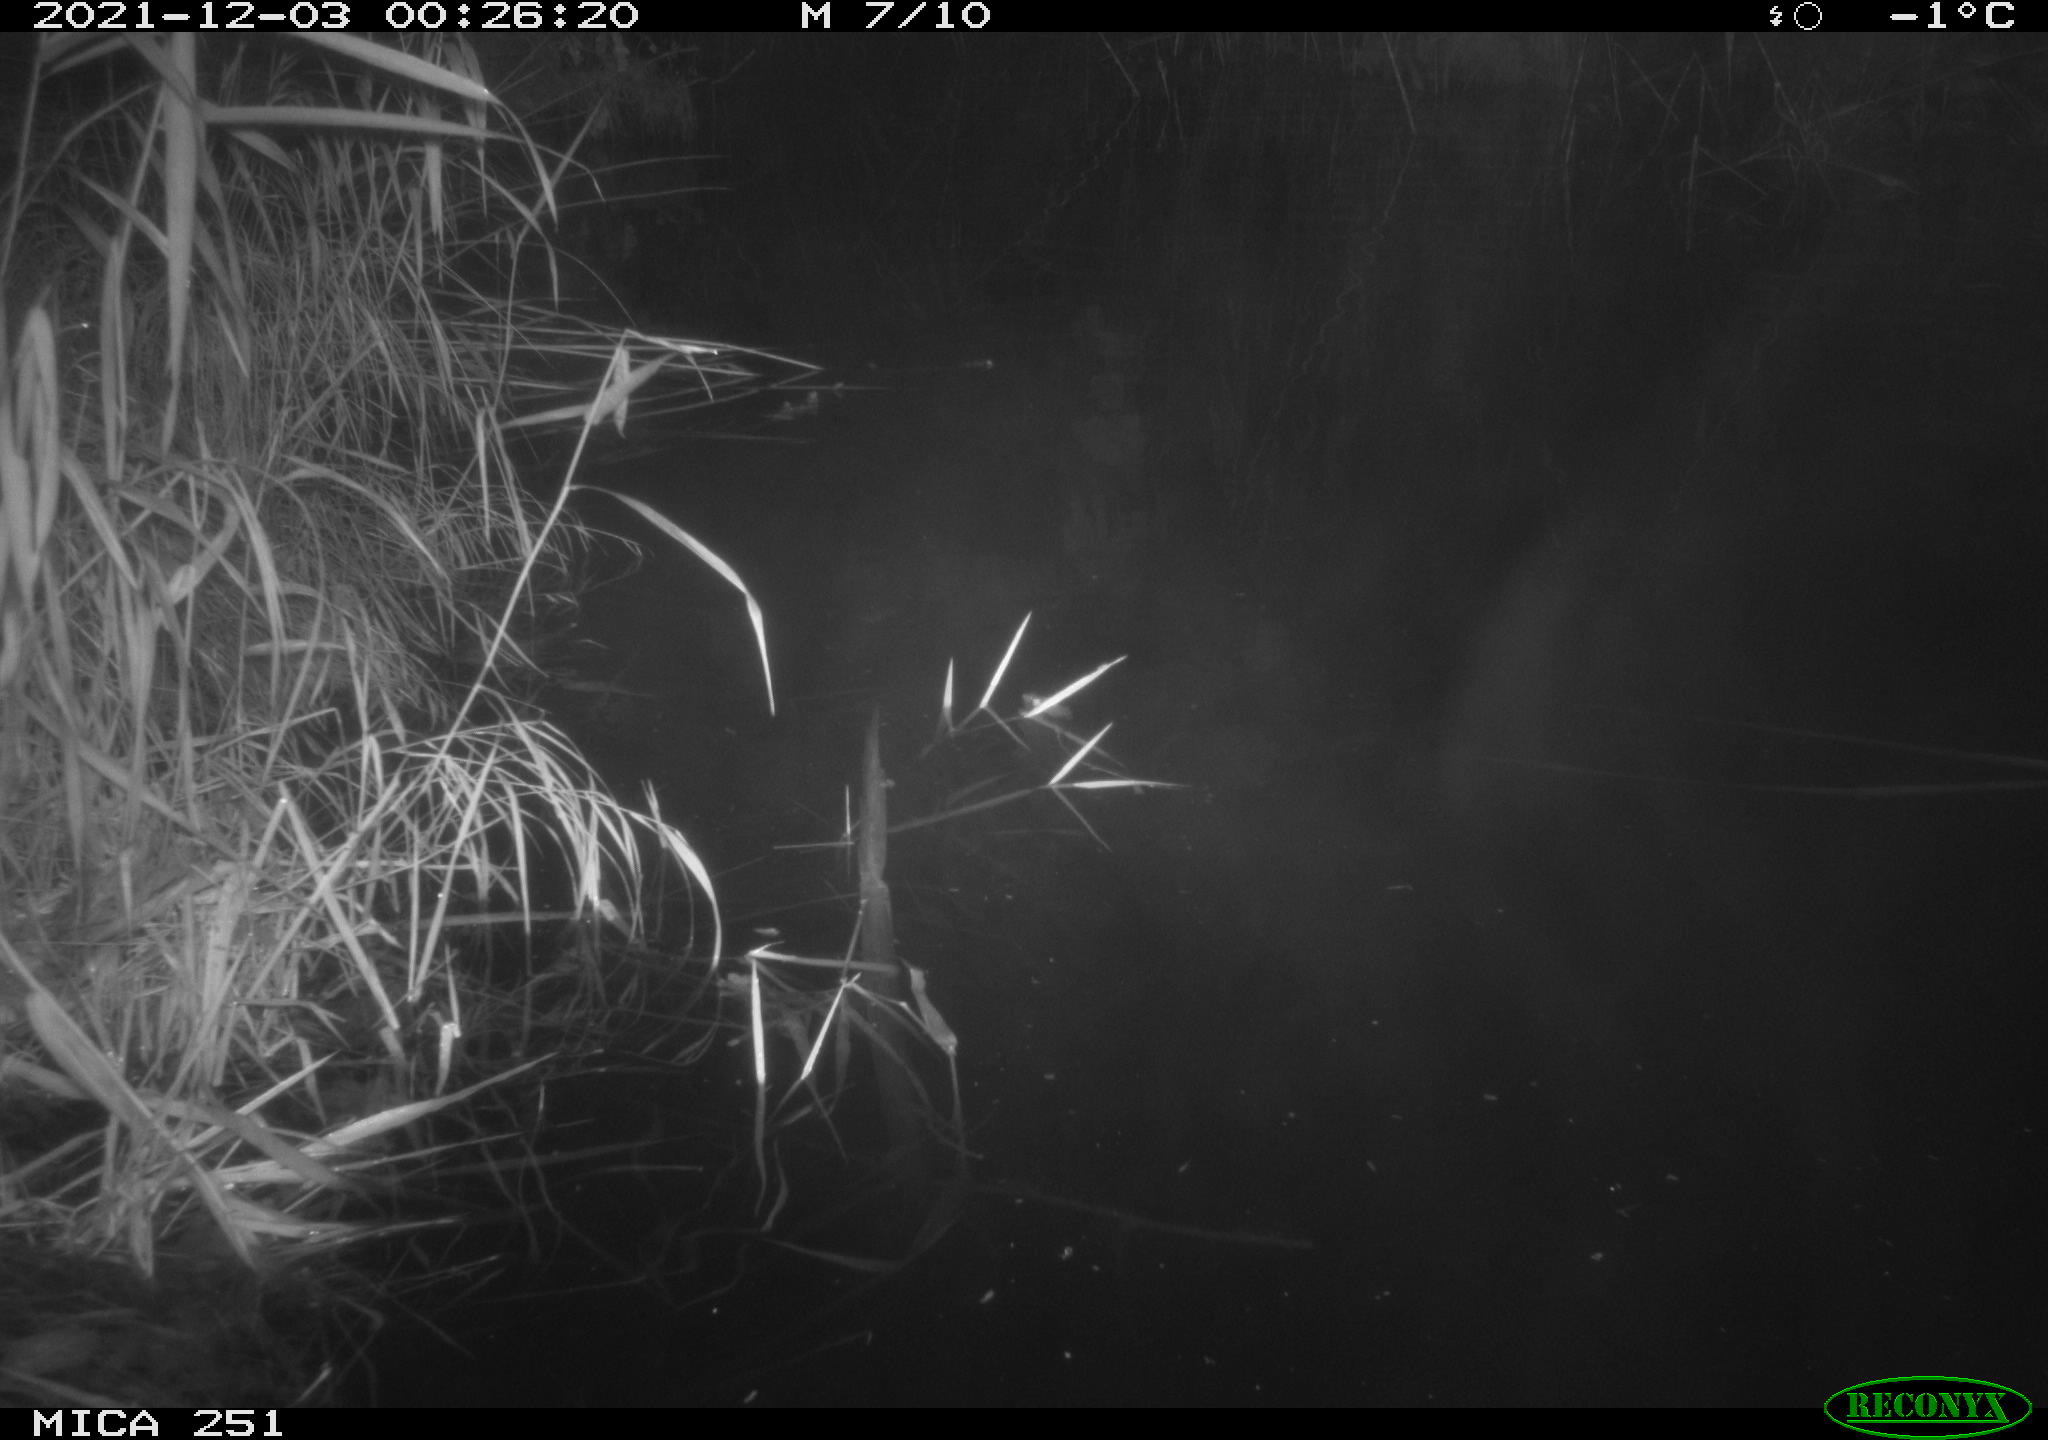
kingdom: Animalia
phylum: Chordata
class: Aves
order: Anseriformes
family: Anatidae
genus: Mareca
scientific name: Mareca strepera
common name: Gadwall
